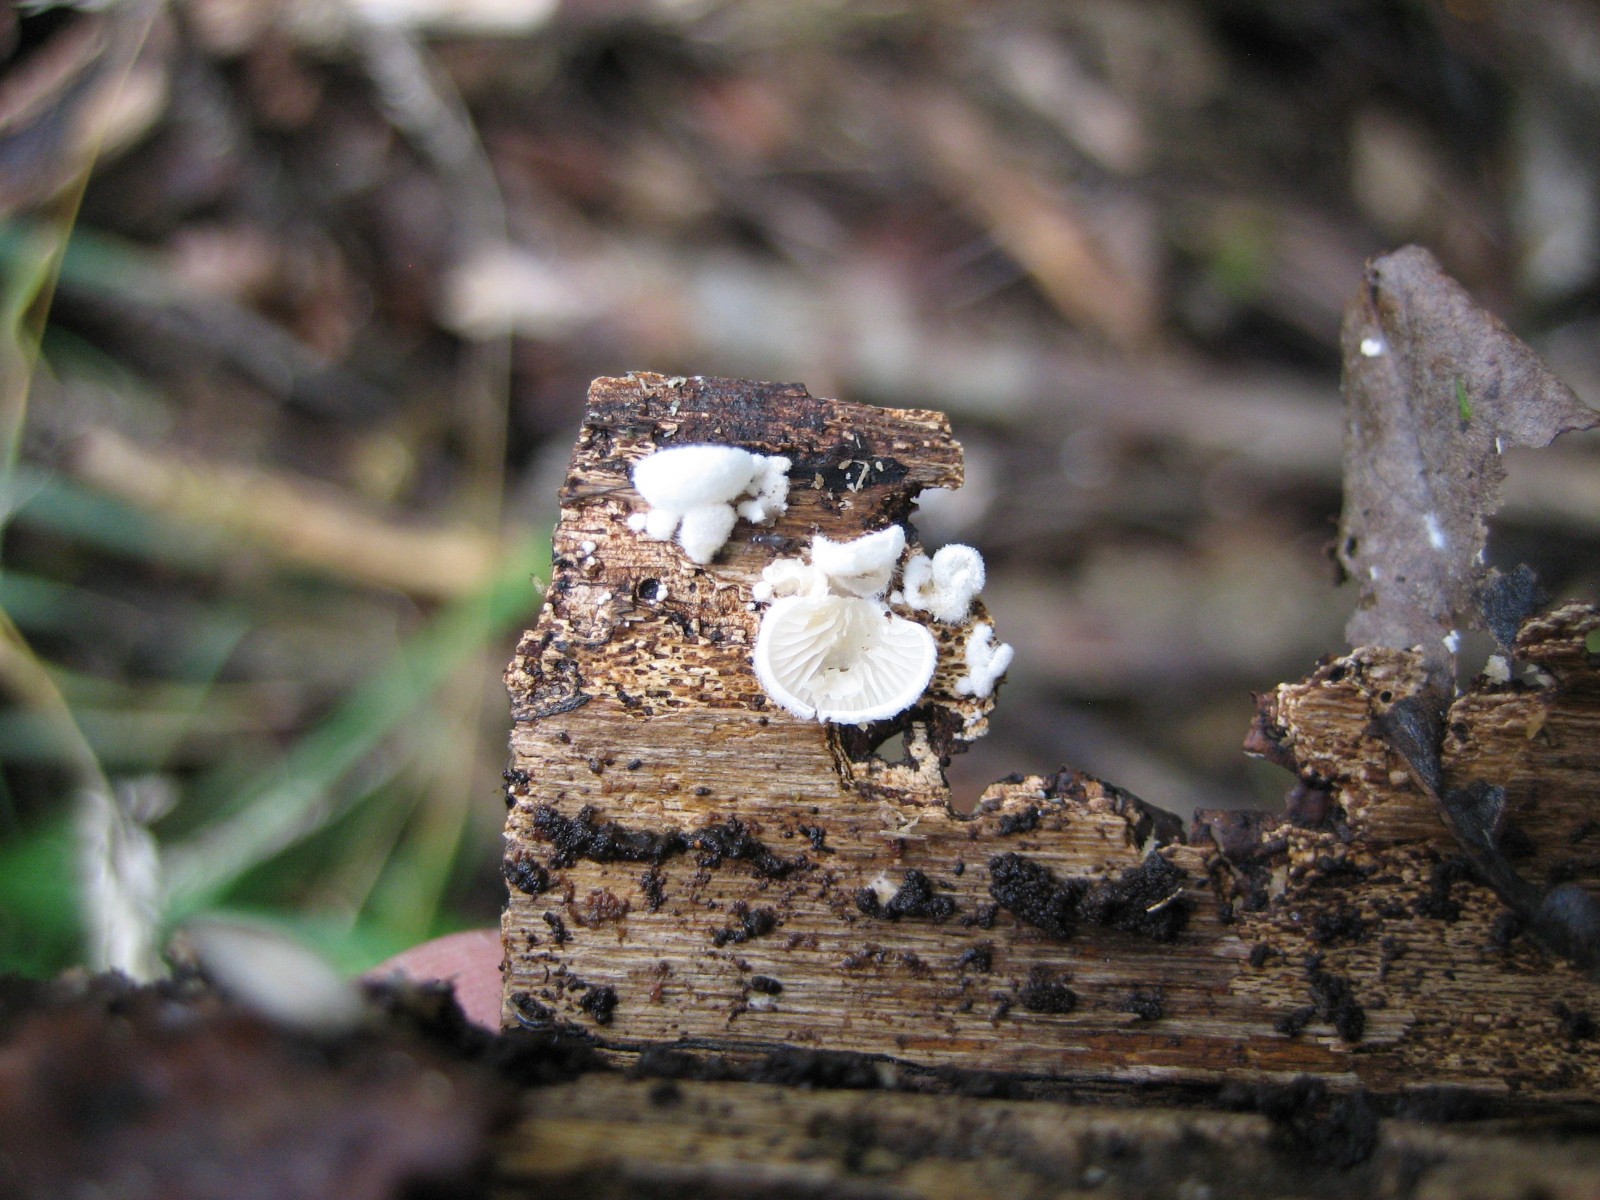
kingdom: Fungi
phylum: Basidiomycota
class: Agaricomycetes
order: Agaricales
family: Entolomataceae
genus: Clitopilus
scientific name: Clitopilus
